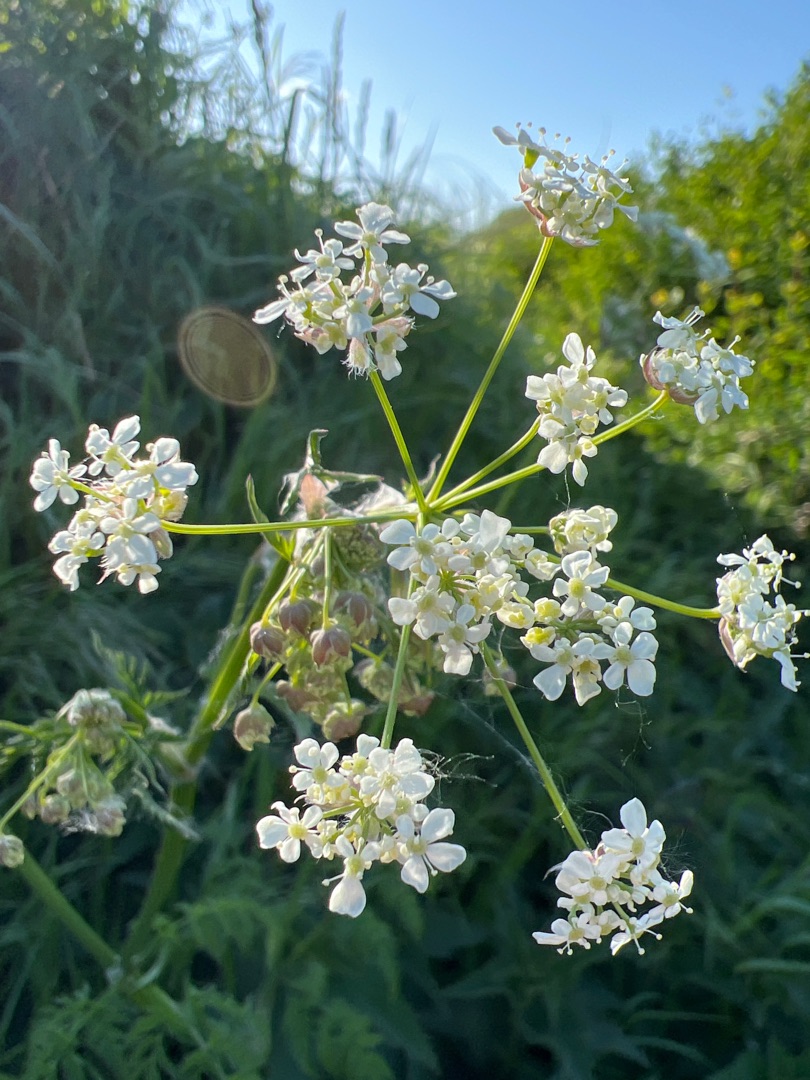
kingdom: Plantae
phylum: Tracheophyta
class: Magnoliopsida
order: Apiales
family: Apiaceae
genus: Anthriscus
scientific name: Anthriscus sylvestris
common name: Vild kørvel
